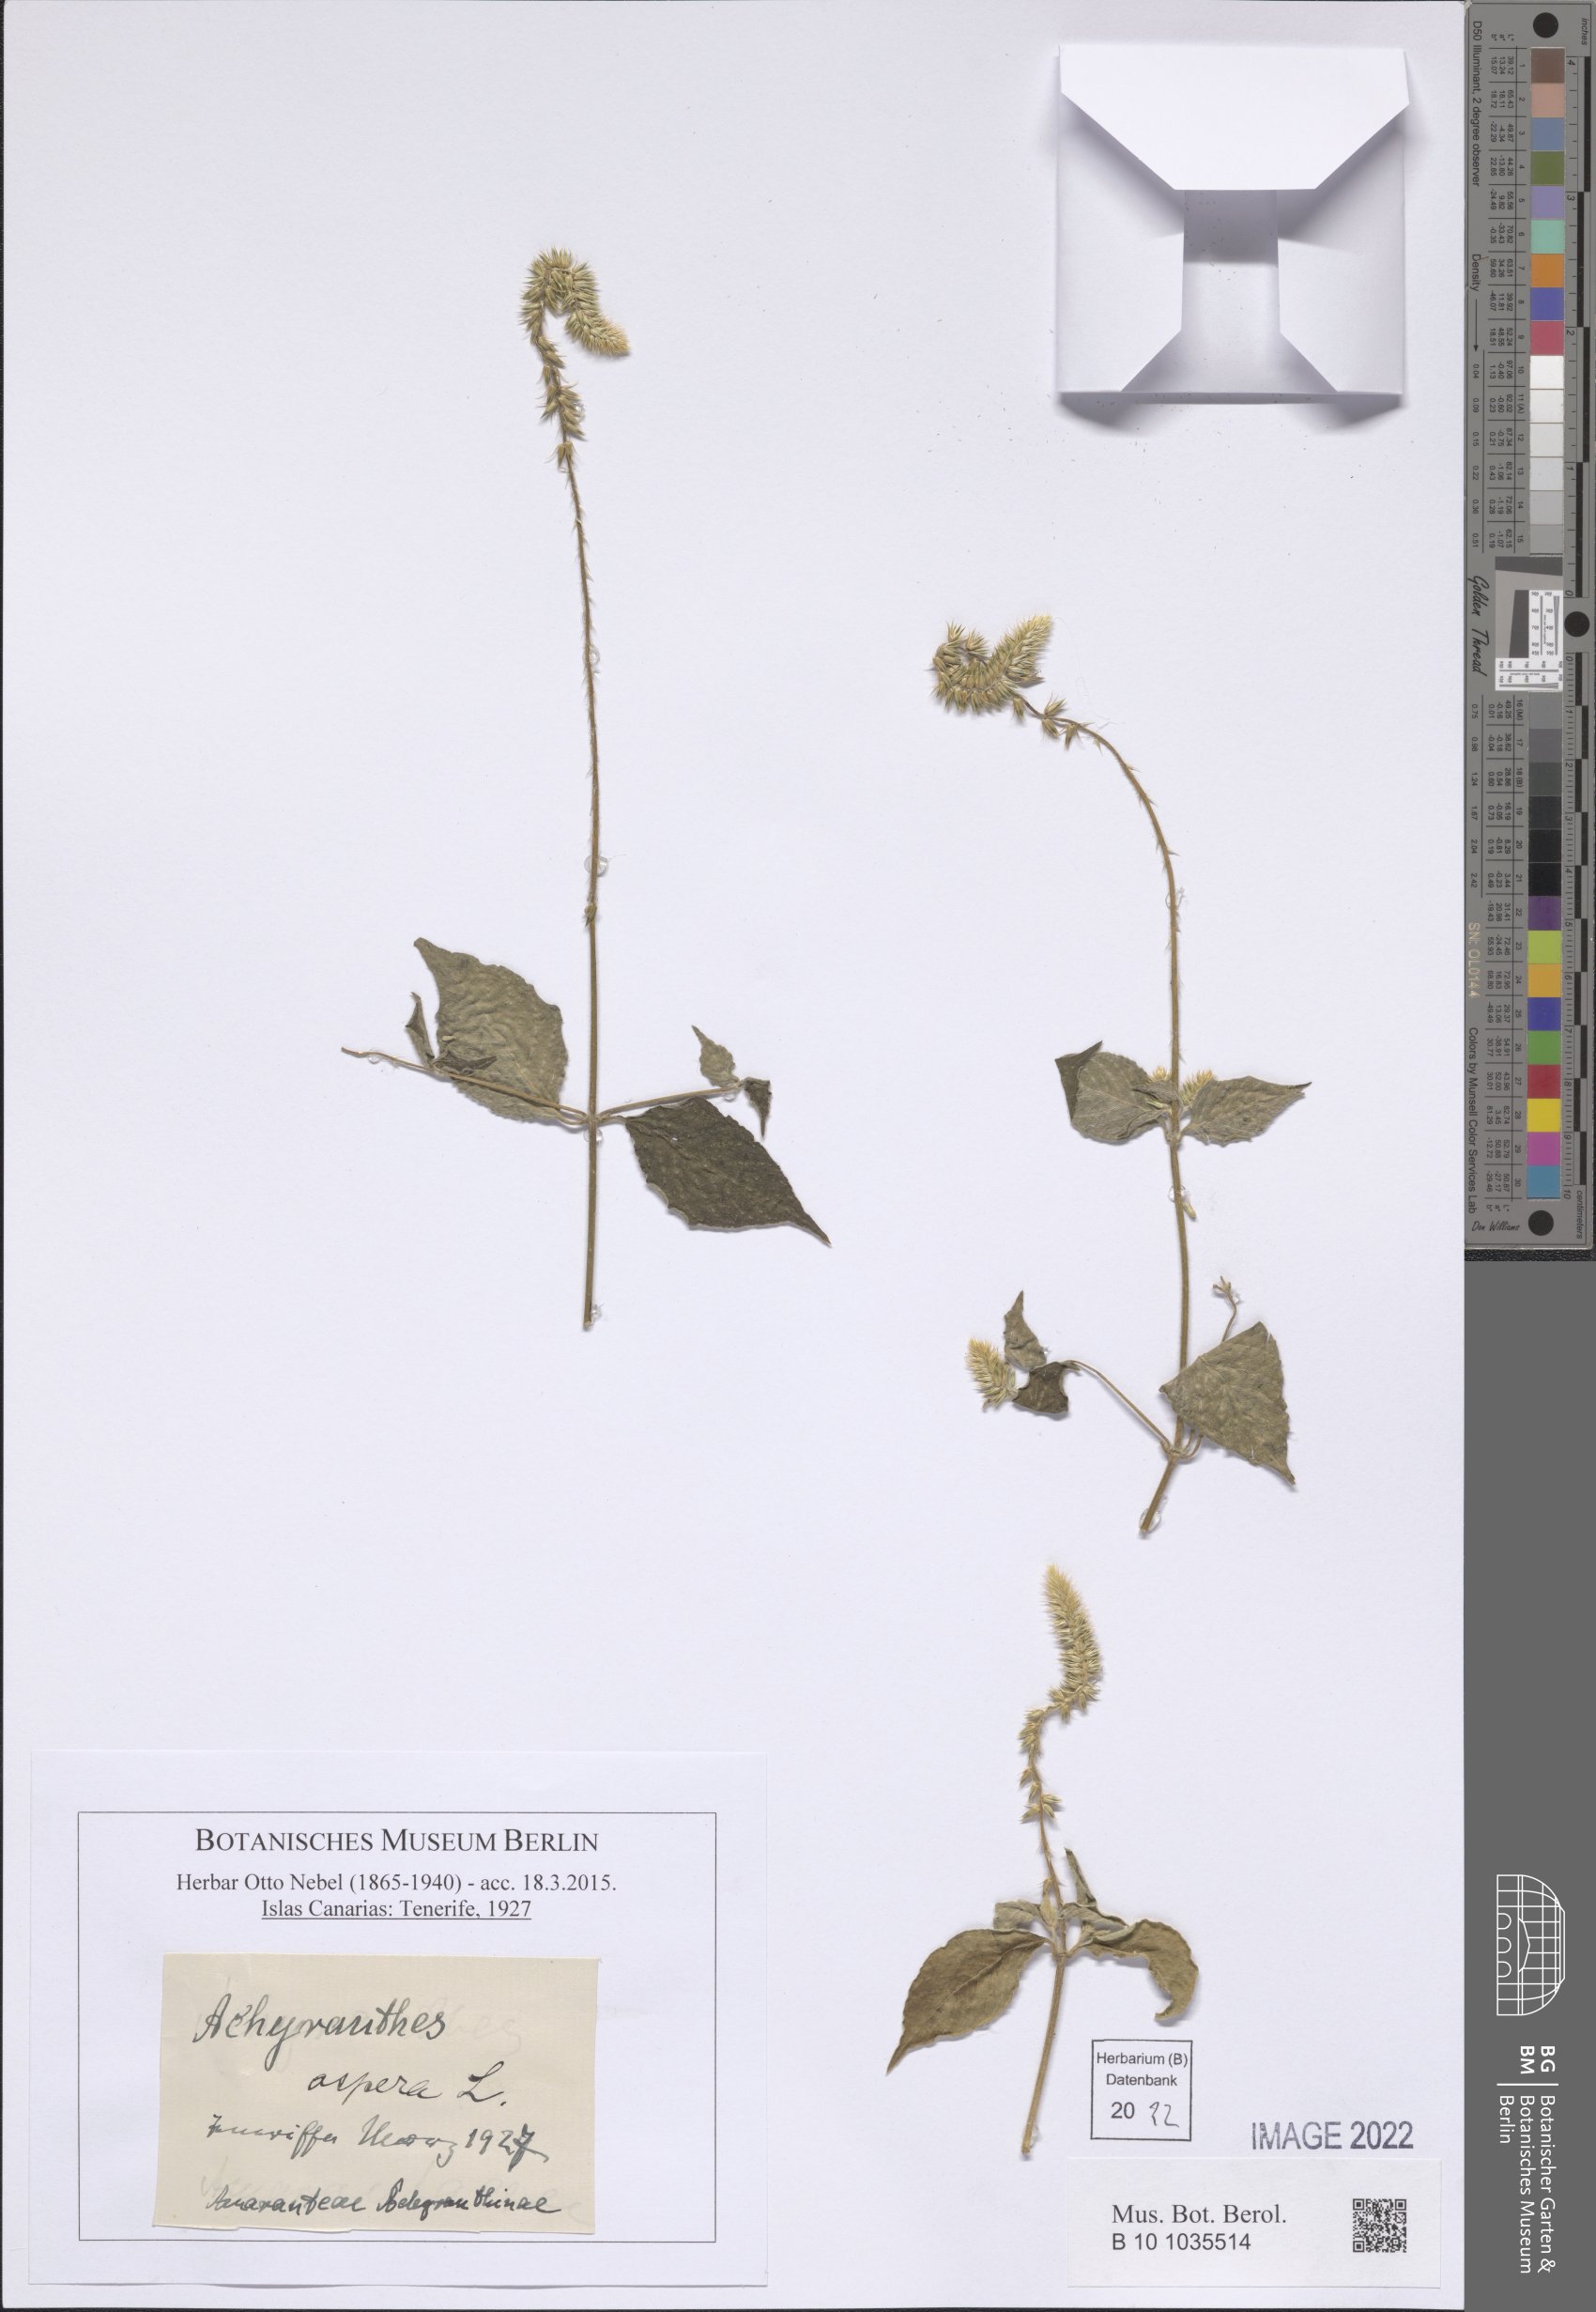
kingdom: Plantae
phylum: Tracheophyta
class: Magnoliopsida
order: Caryophyllales
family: Amaranthaceae
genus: Achyranthes
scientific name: Achyranthes aspera
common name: Devil's horsewhip
